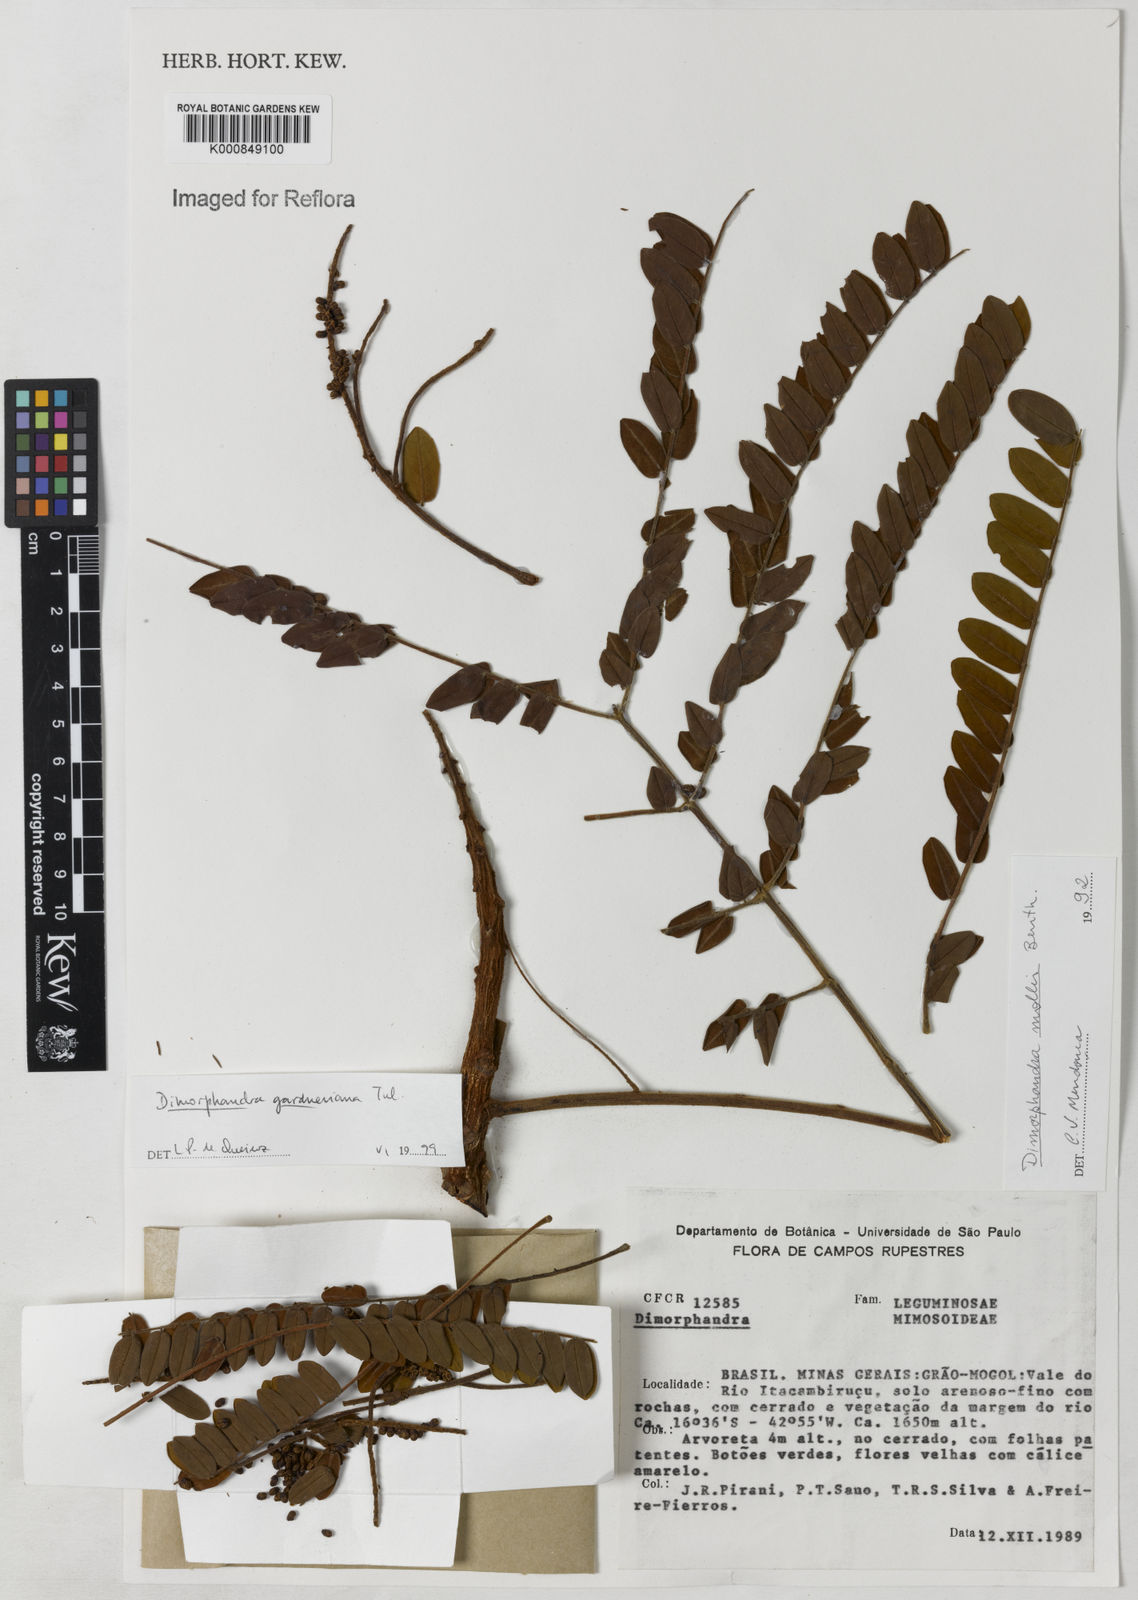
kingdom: Plantae
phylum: Tracheophyta
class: Magnoliopsida
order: Fabales
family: Fabaceae
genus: Dimorphandra
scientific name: Dimorphandra gardneriana
